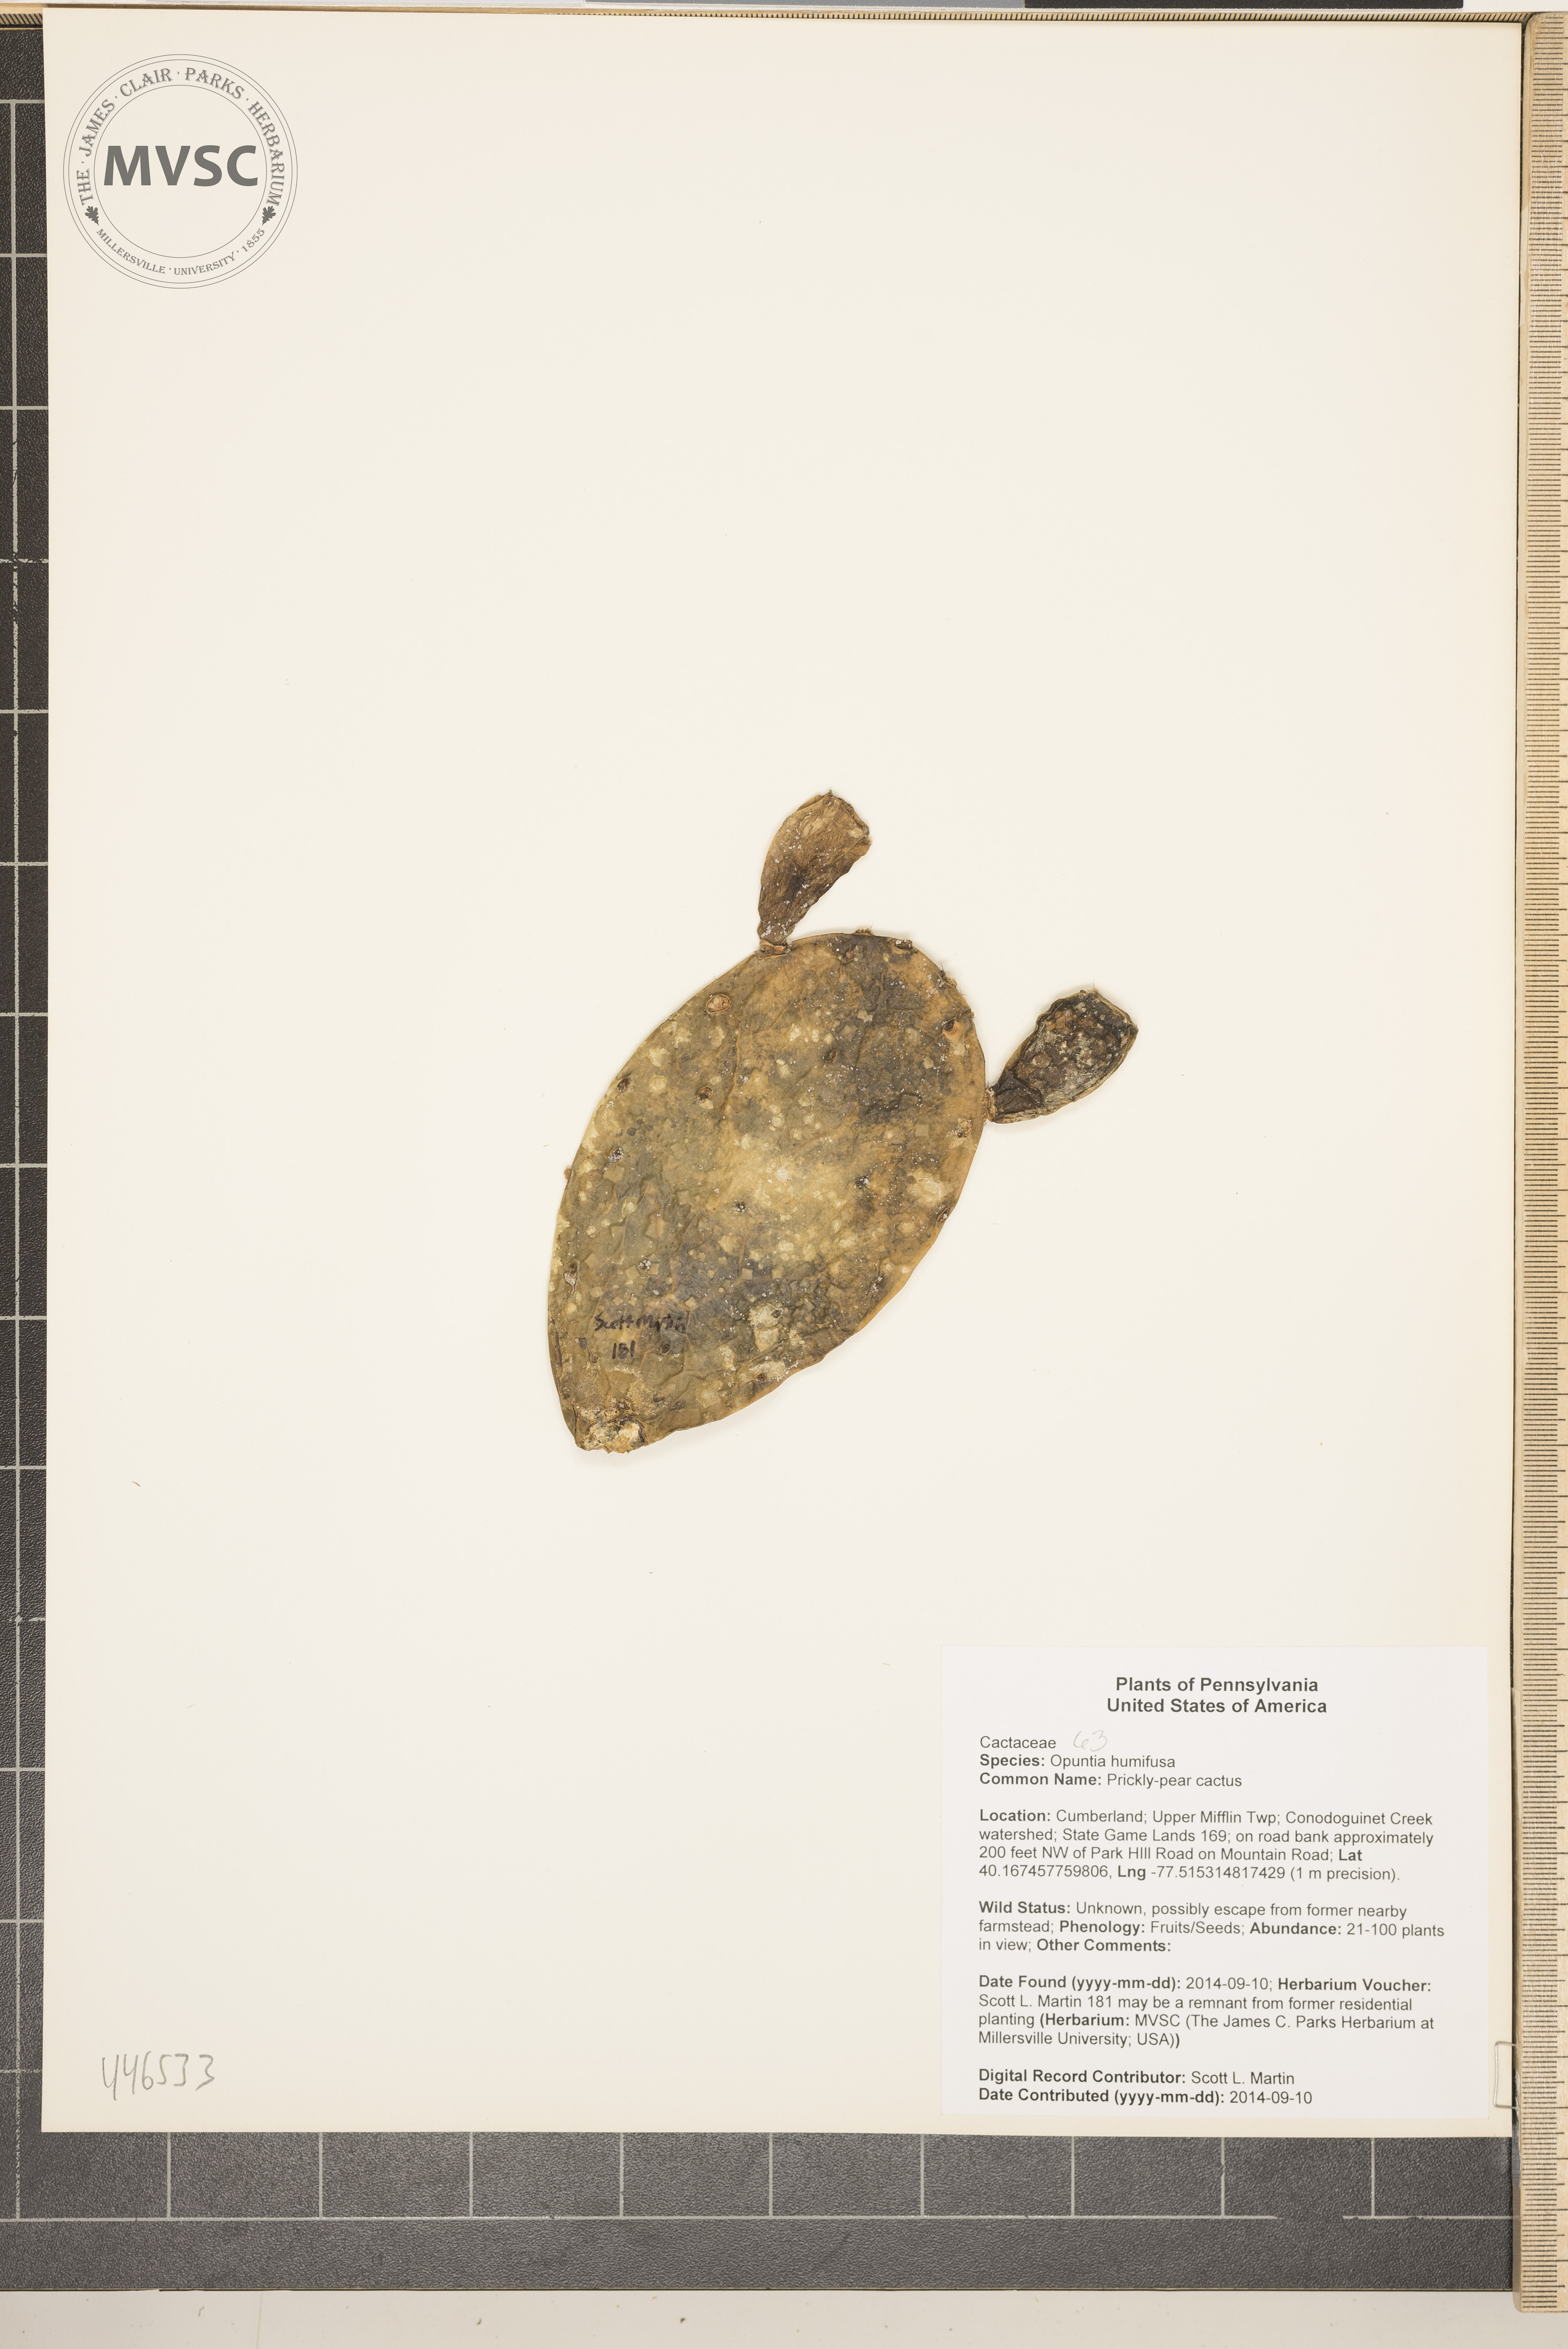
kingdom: Plantae
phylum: Tracheophyta
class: Magnoliopsida
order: Caryophyllales
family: Cactaceae
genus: Opuntia
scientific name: Opuntia humifusa
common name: Prickly-pear cactus
